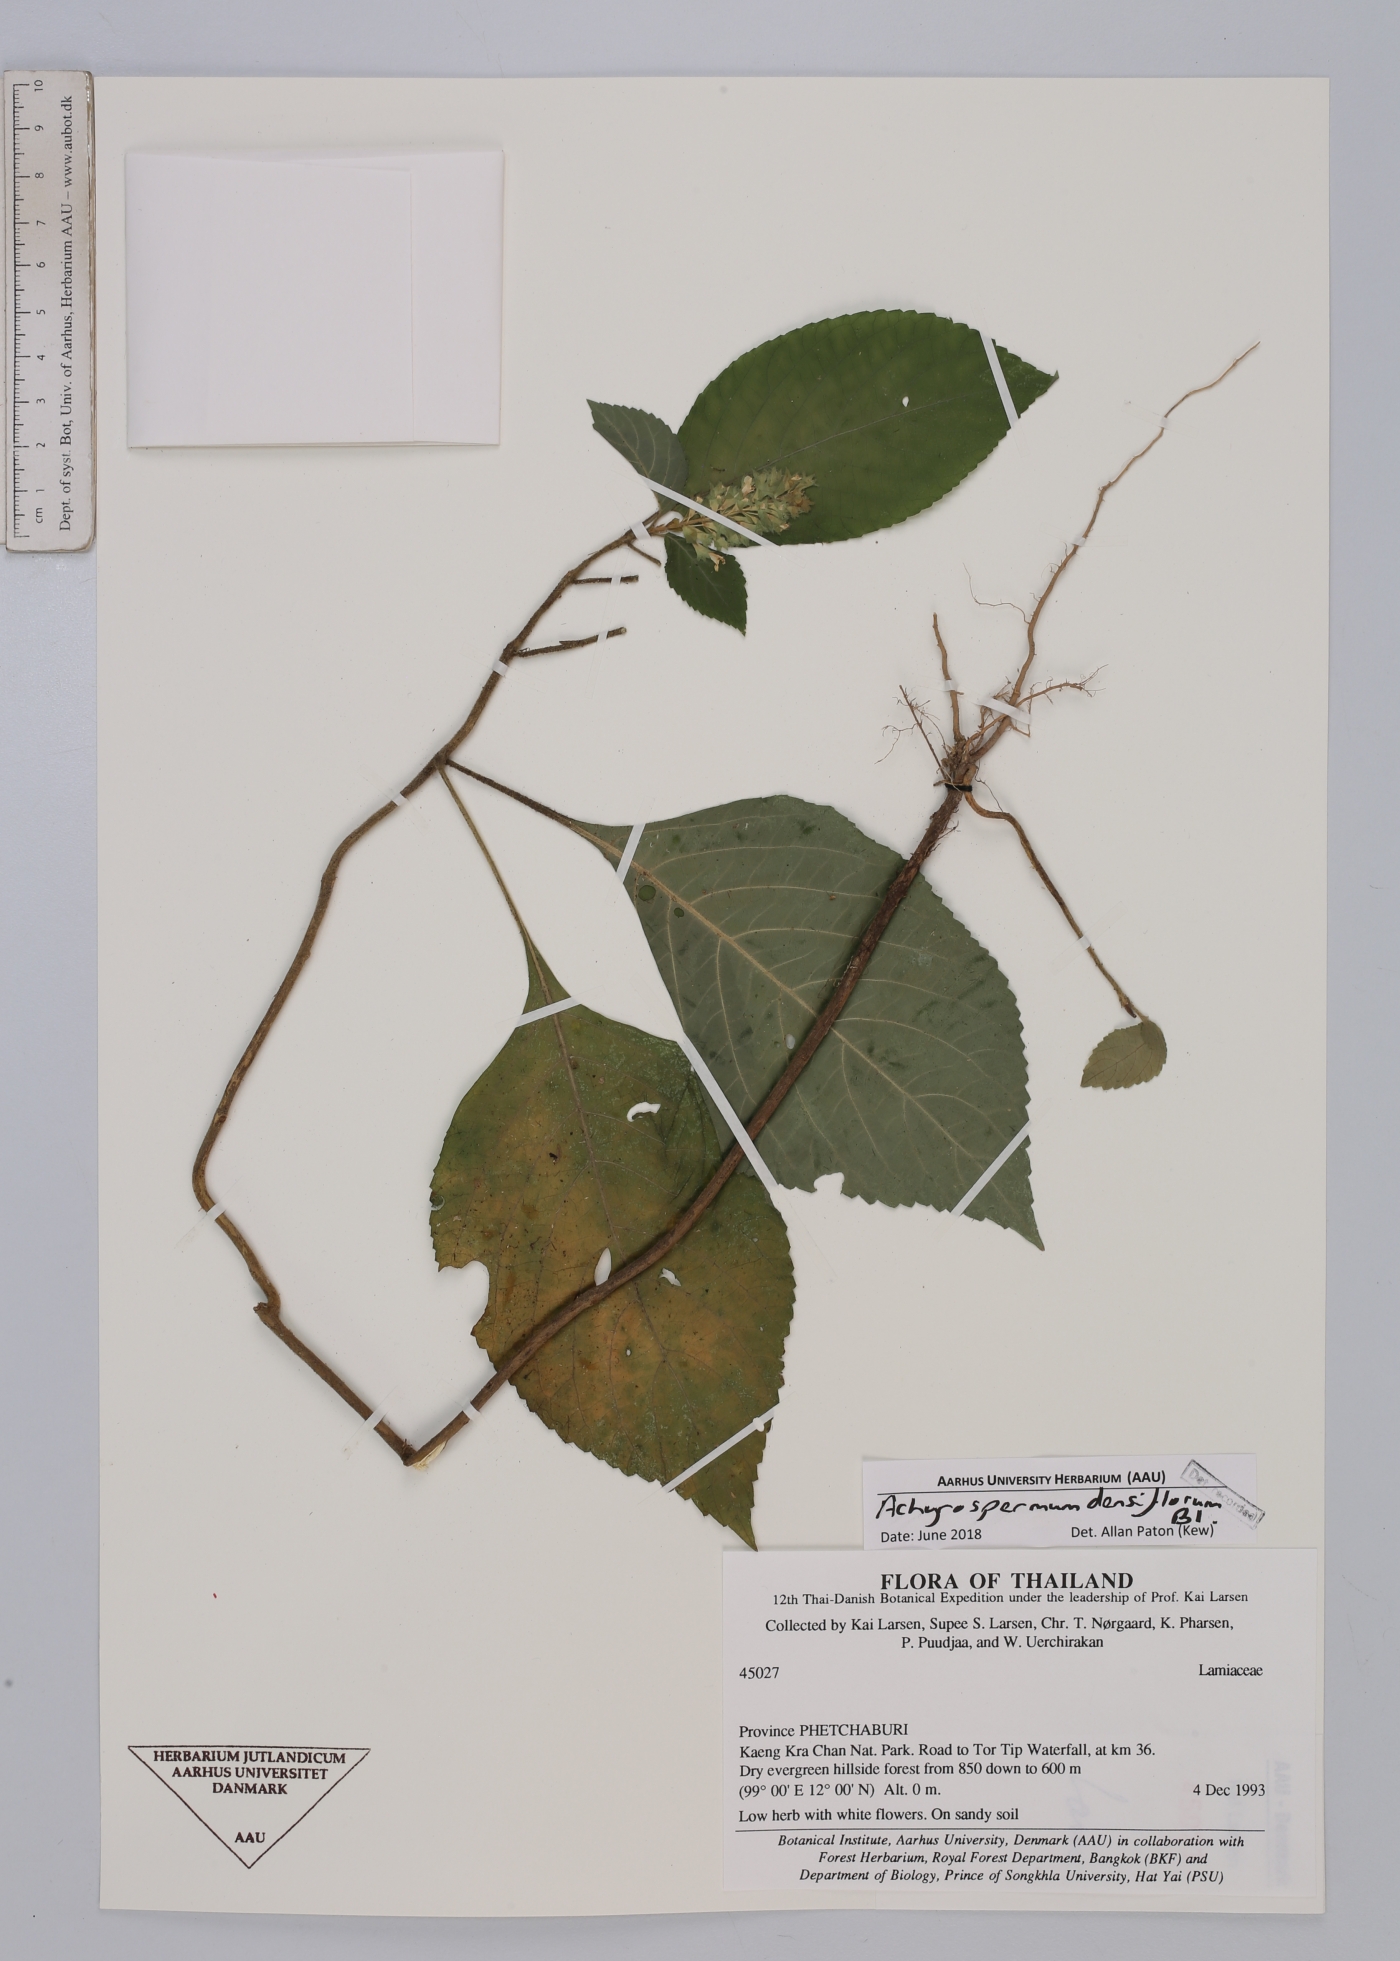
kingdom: Plantae
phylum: Tracheophyta
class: Magnoliopsida
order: Lamiales
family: Lamiaceae
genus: Achyrospermum
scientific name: Achyrospermum densiflorum
